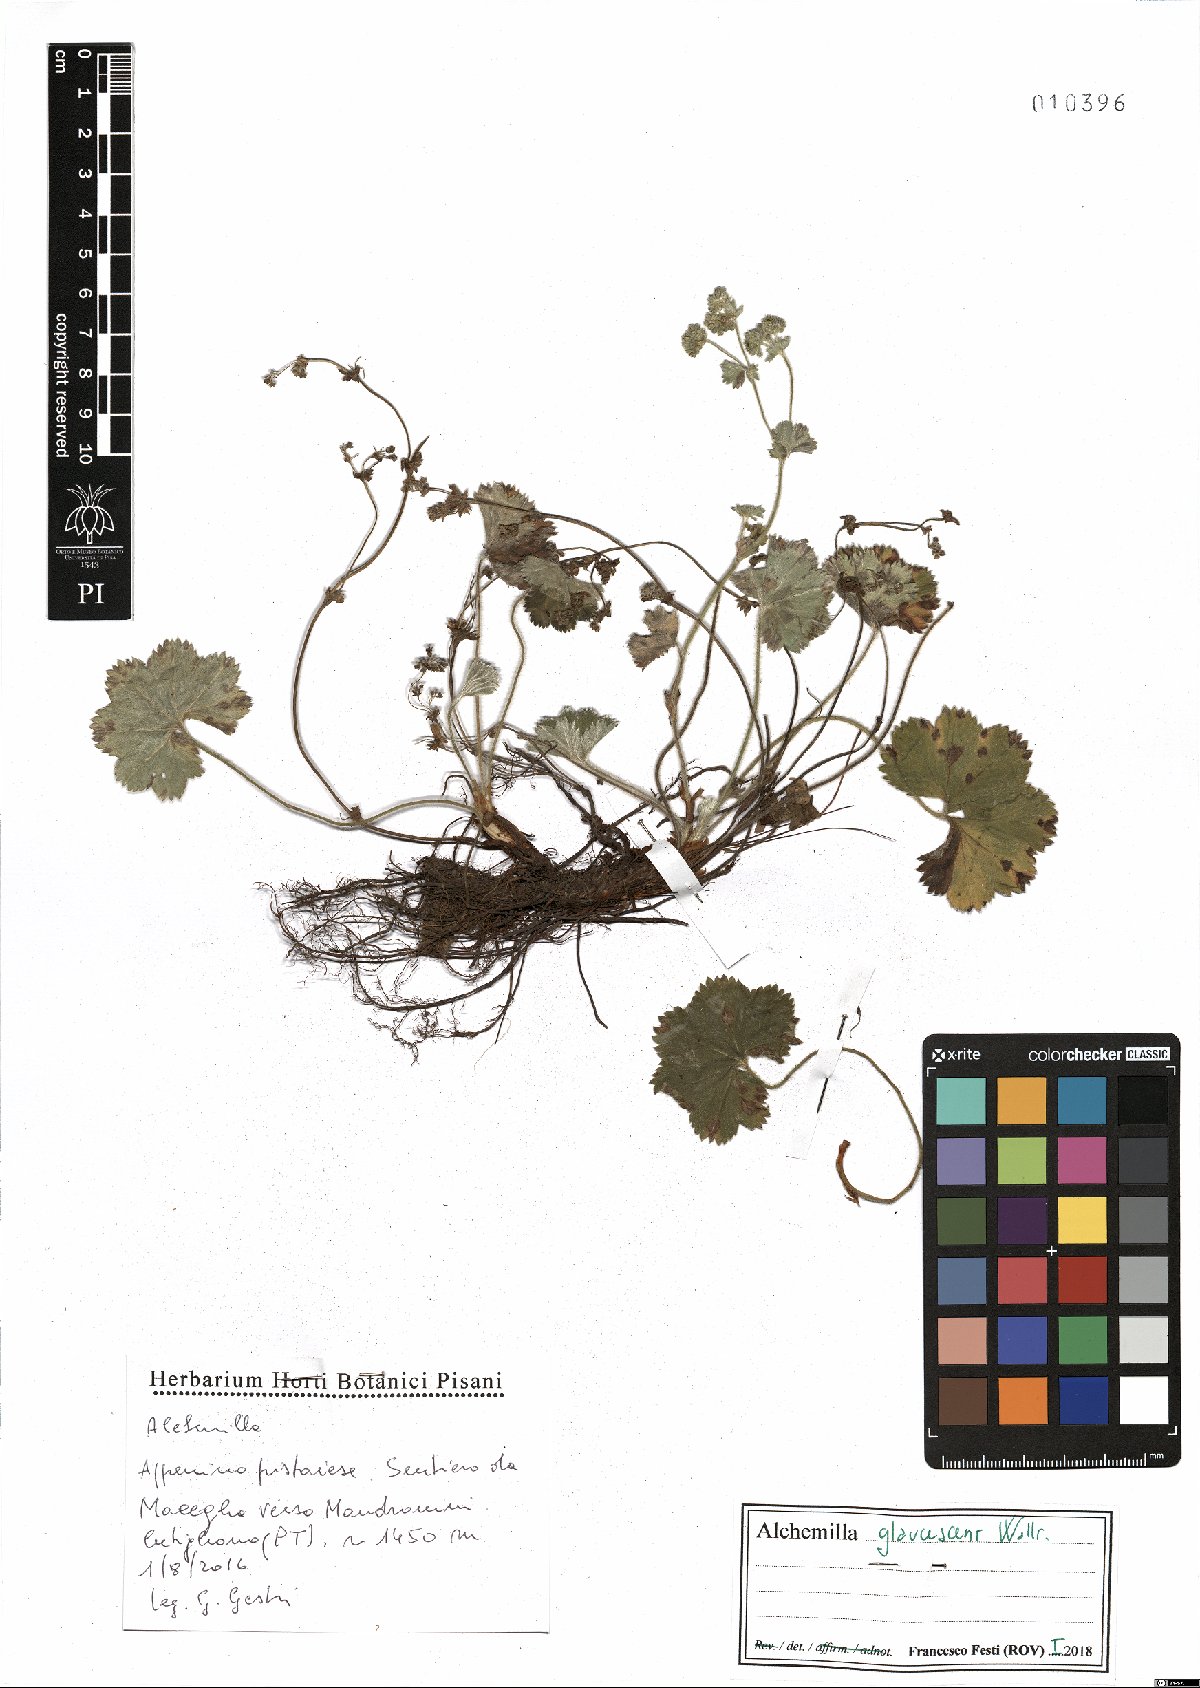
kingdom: Plantae
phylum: Tracheophyta
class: Magnoliopsida
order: Rosales
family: Rosaceae
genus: Alchemilla
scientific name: Alchemilla glaucescens
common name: Silky lady's mantle
